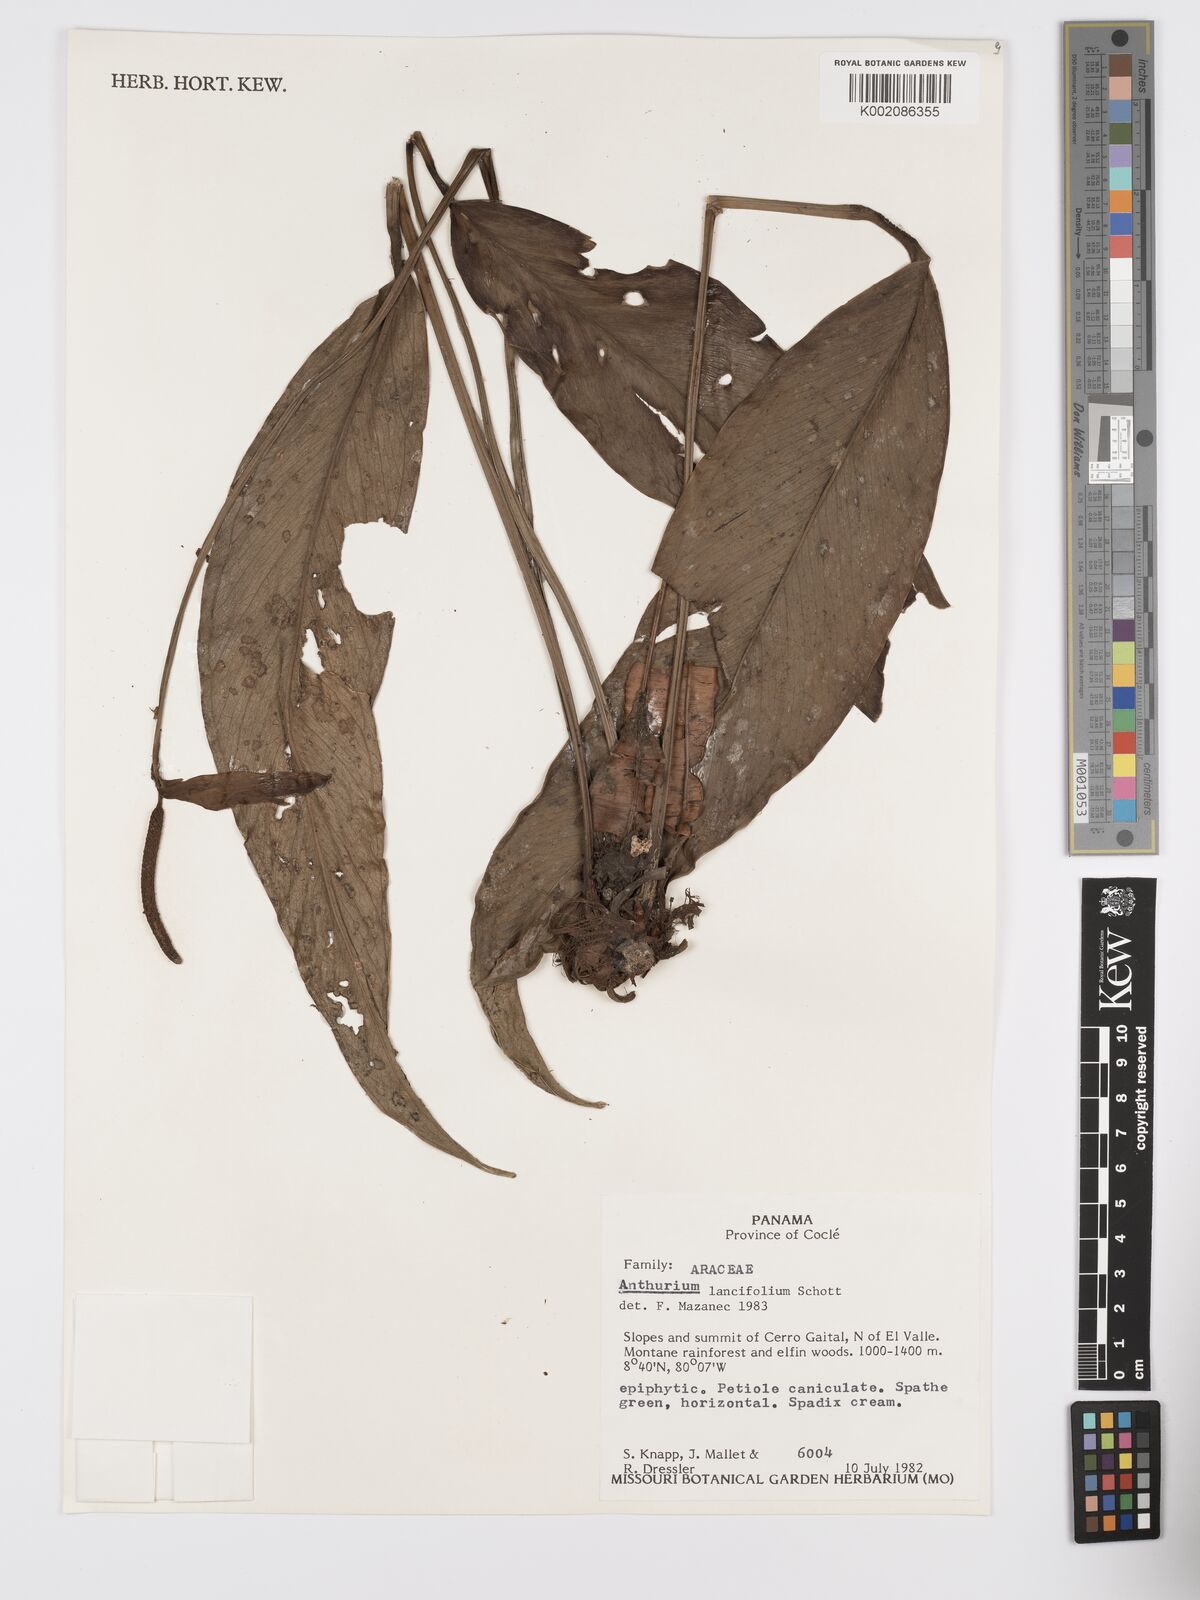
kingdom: Plantae
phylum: Tracheophyta
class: Liliopsida
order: Alismatales
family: Araceae
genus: Anthurium
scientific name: Anthurium lancifolium
